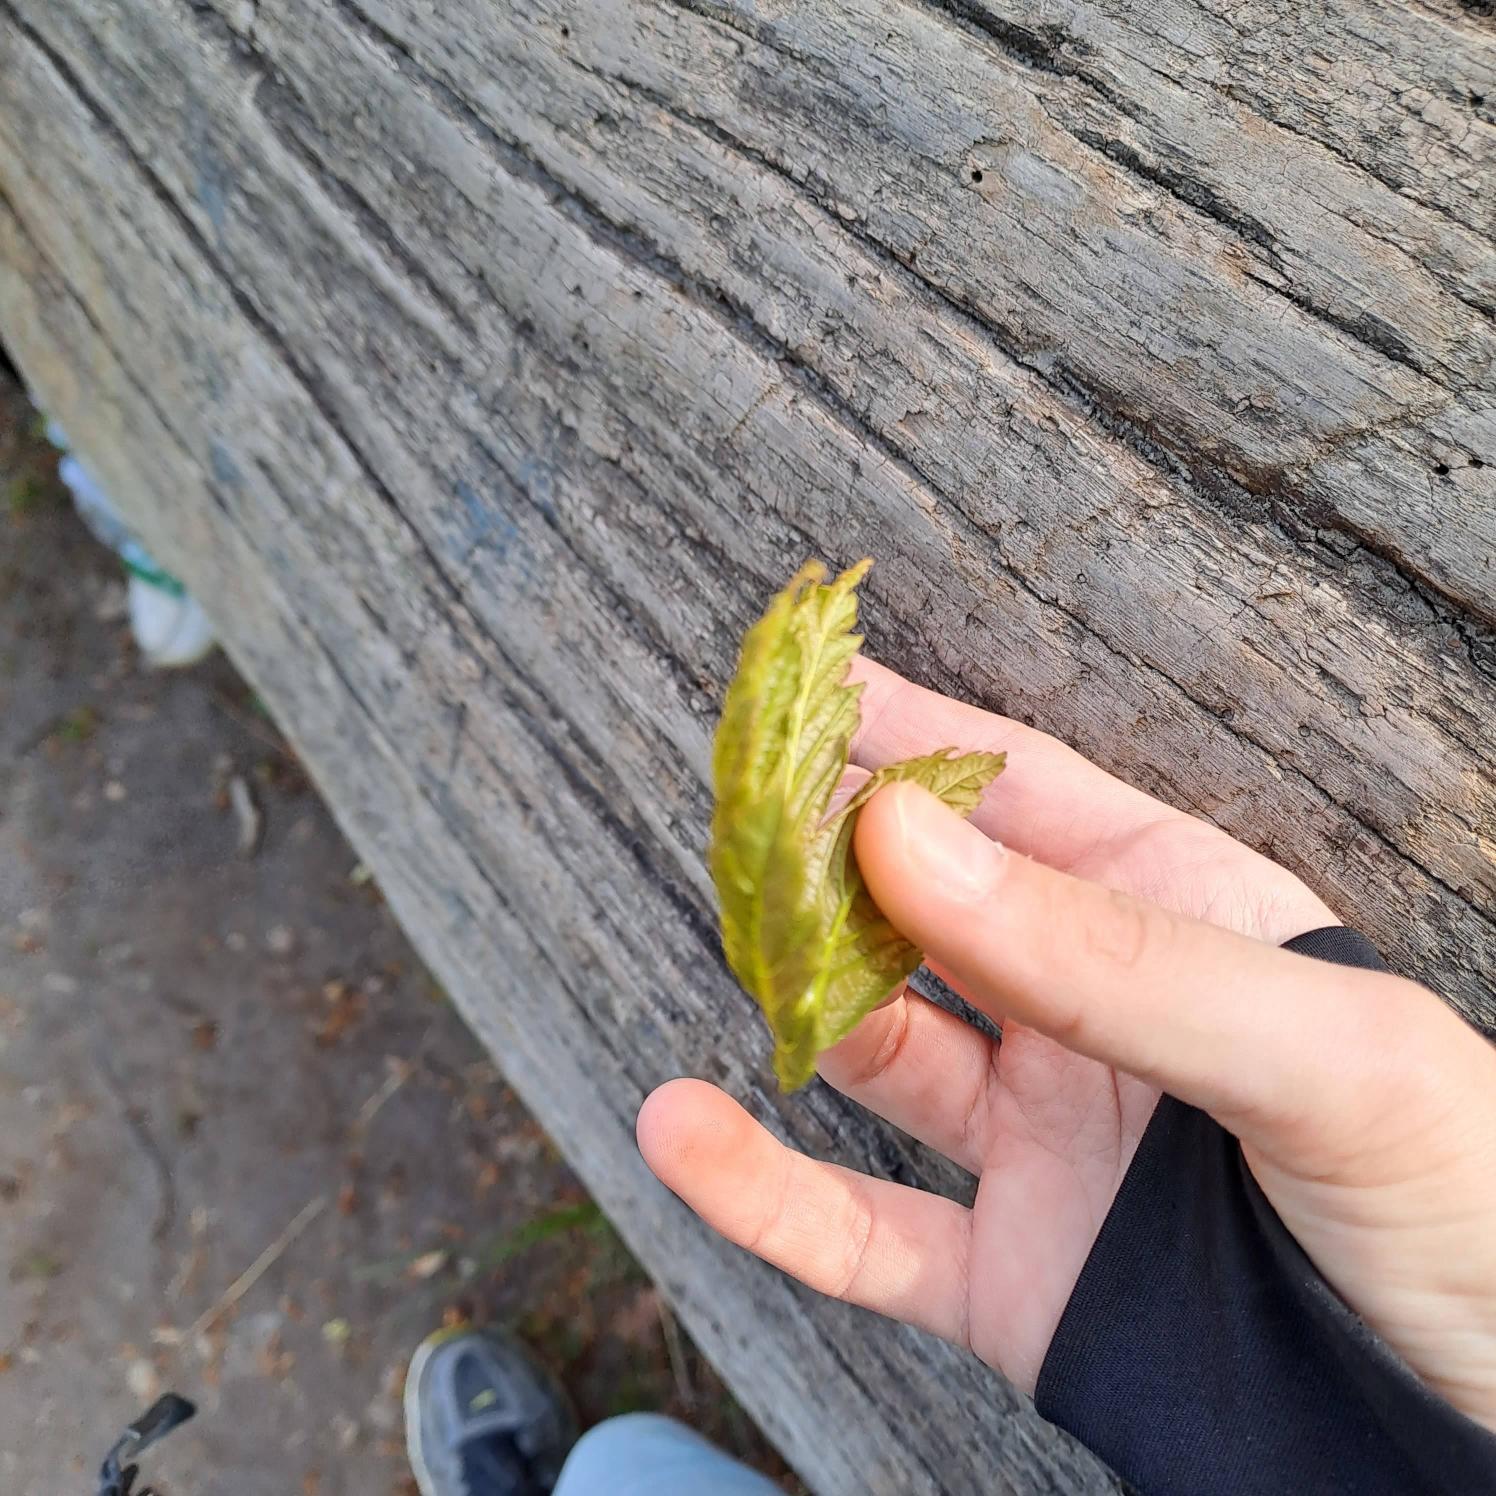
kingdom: Plantae
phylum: Tracheophyta
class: Magnoliopsida
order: Sapindales
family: Sapindaceae
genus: Acer
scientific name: Acer pseudoplatanus
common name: Ahorn
